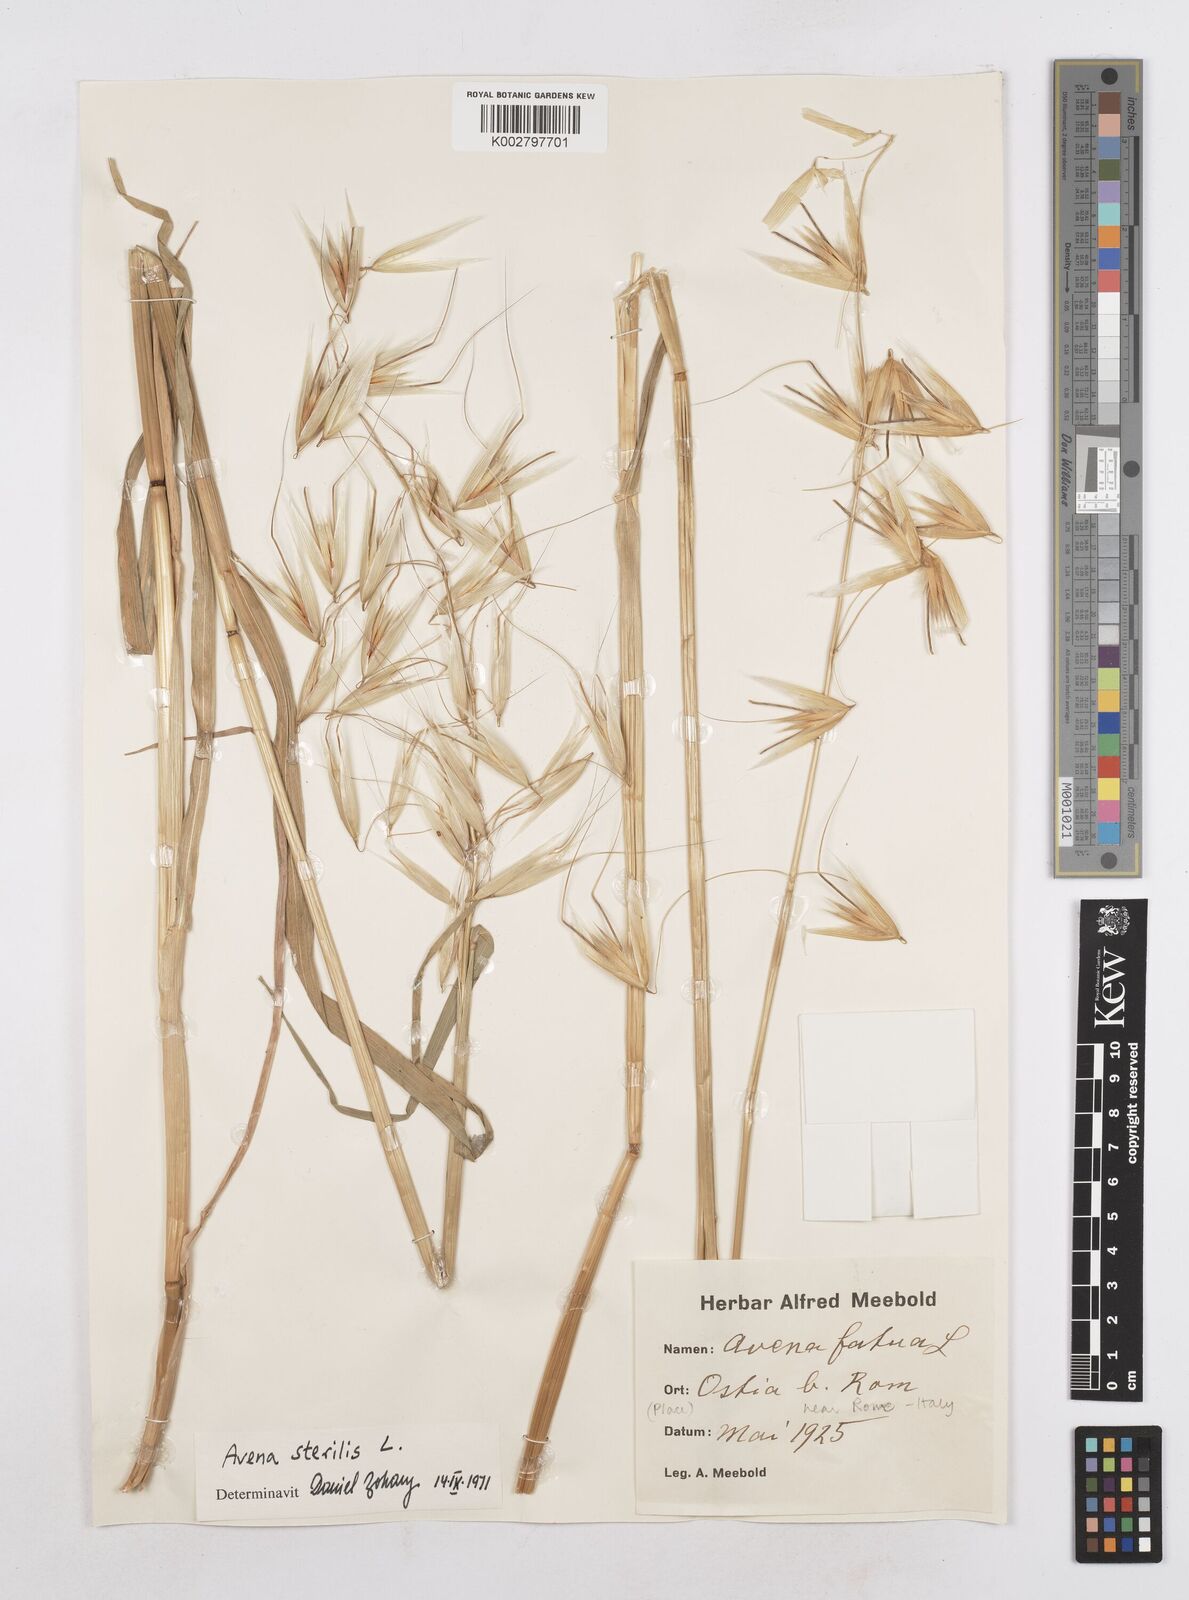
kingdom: Plantae
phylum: Tracheophyta
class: Liliopsida
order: Poales
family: Poaceae
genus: Avena
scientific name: Avena sterilis
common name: Animated oat
